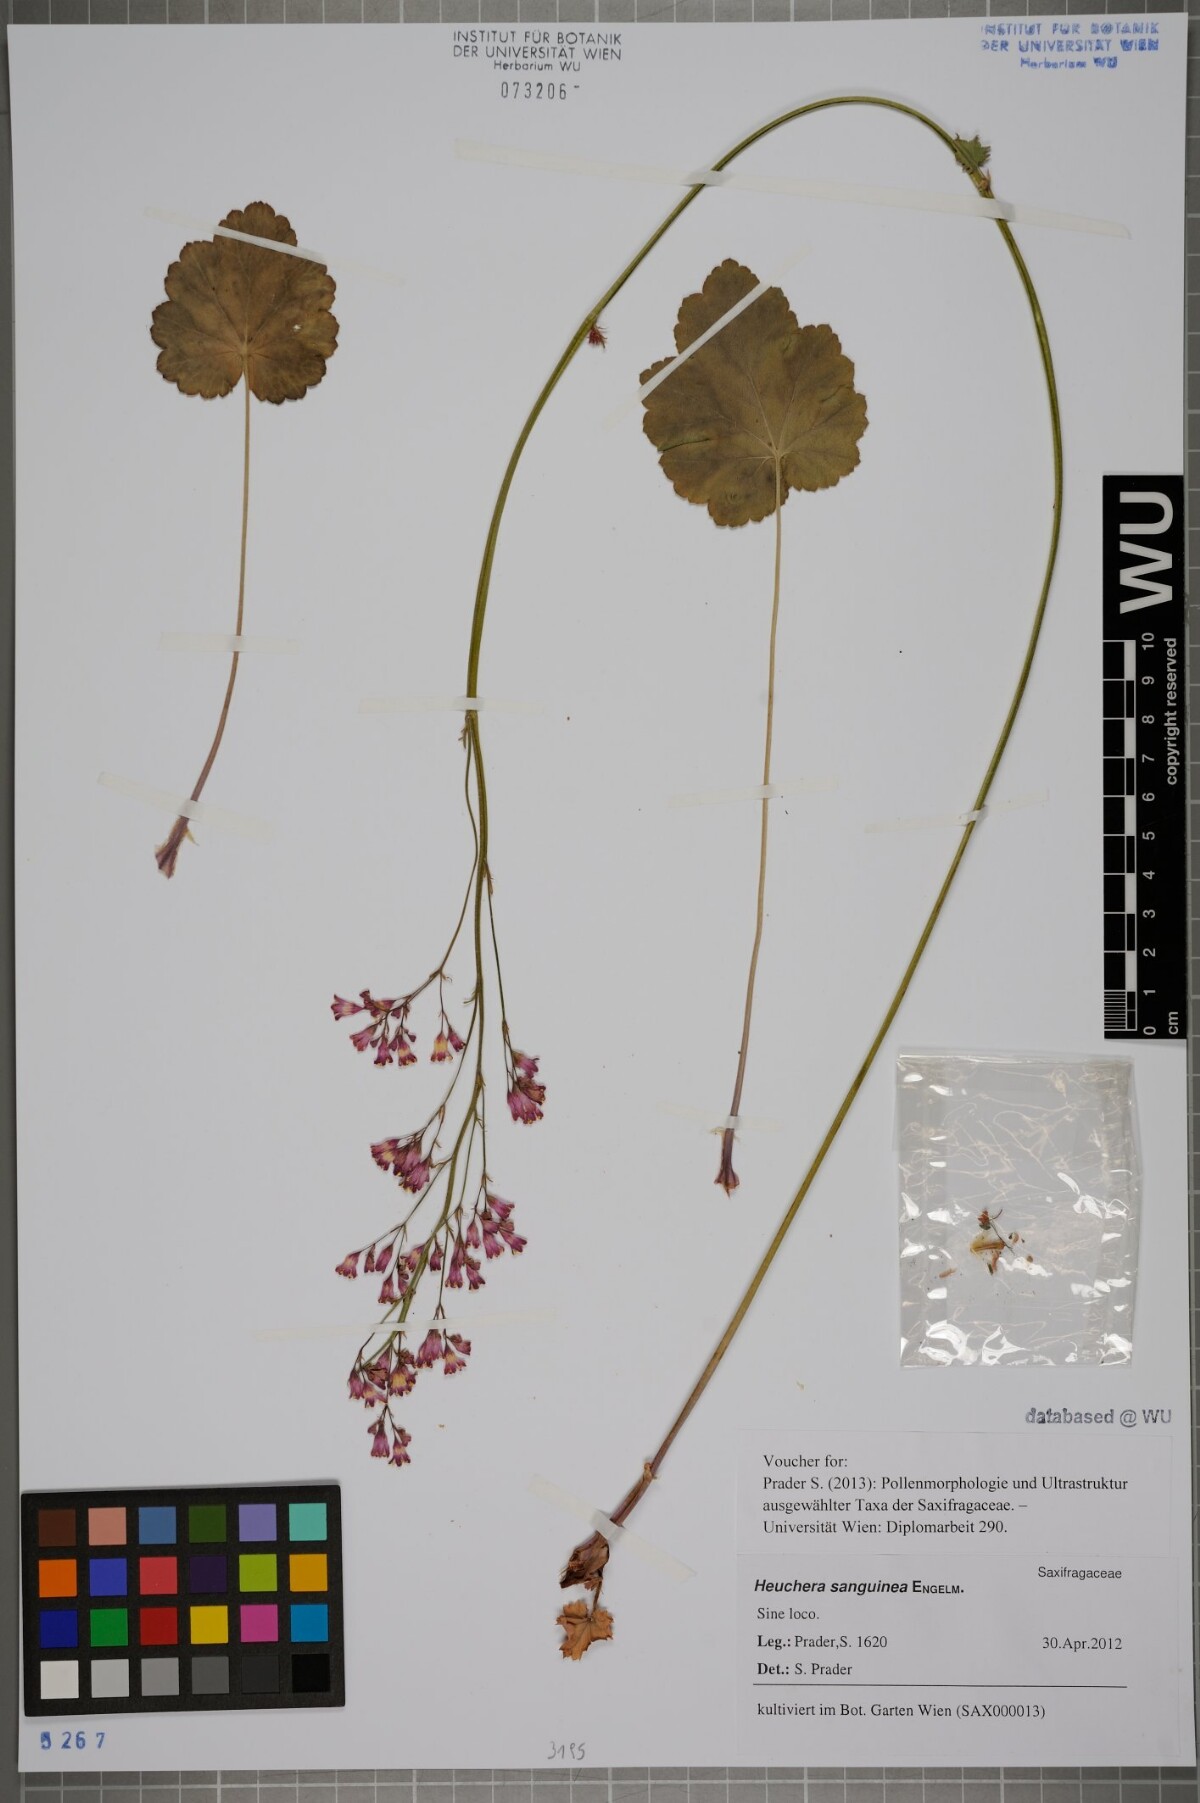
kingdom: Plantae
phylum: Tracheophyta
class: Magnoliopsida
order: Saxifragales
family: Saxifragaceae
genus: Heuchera
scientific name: Heuchera sanguinea
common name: Coralbells
